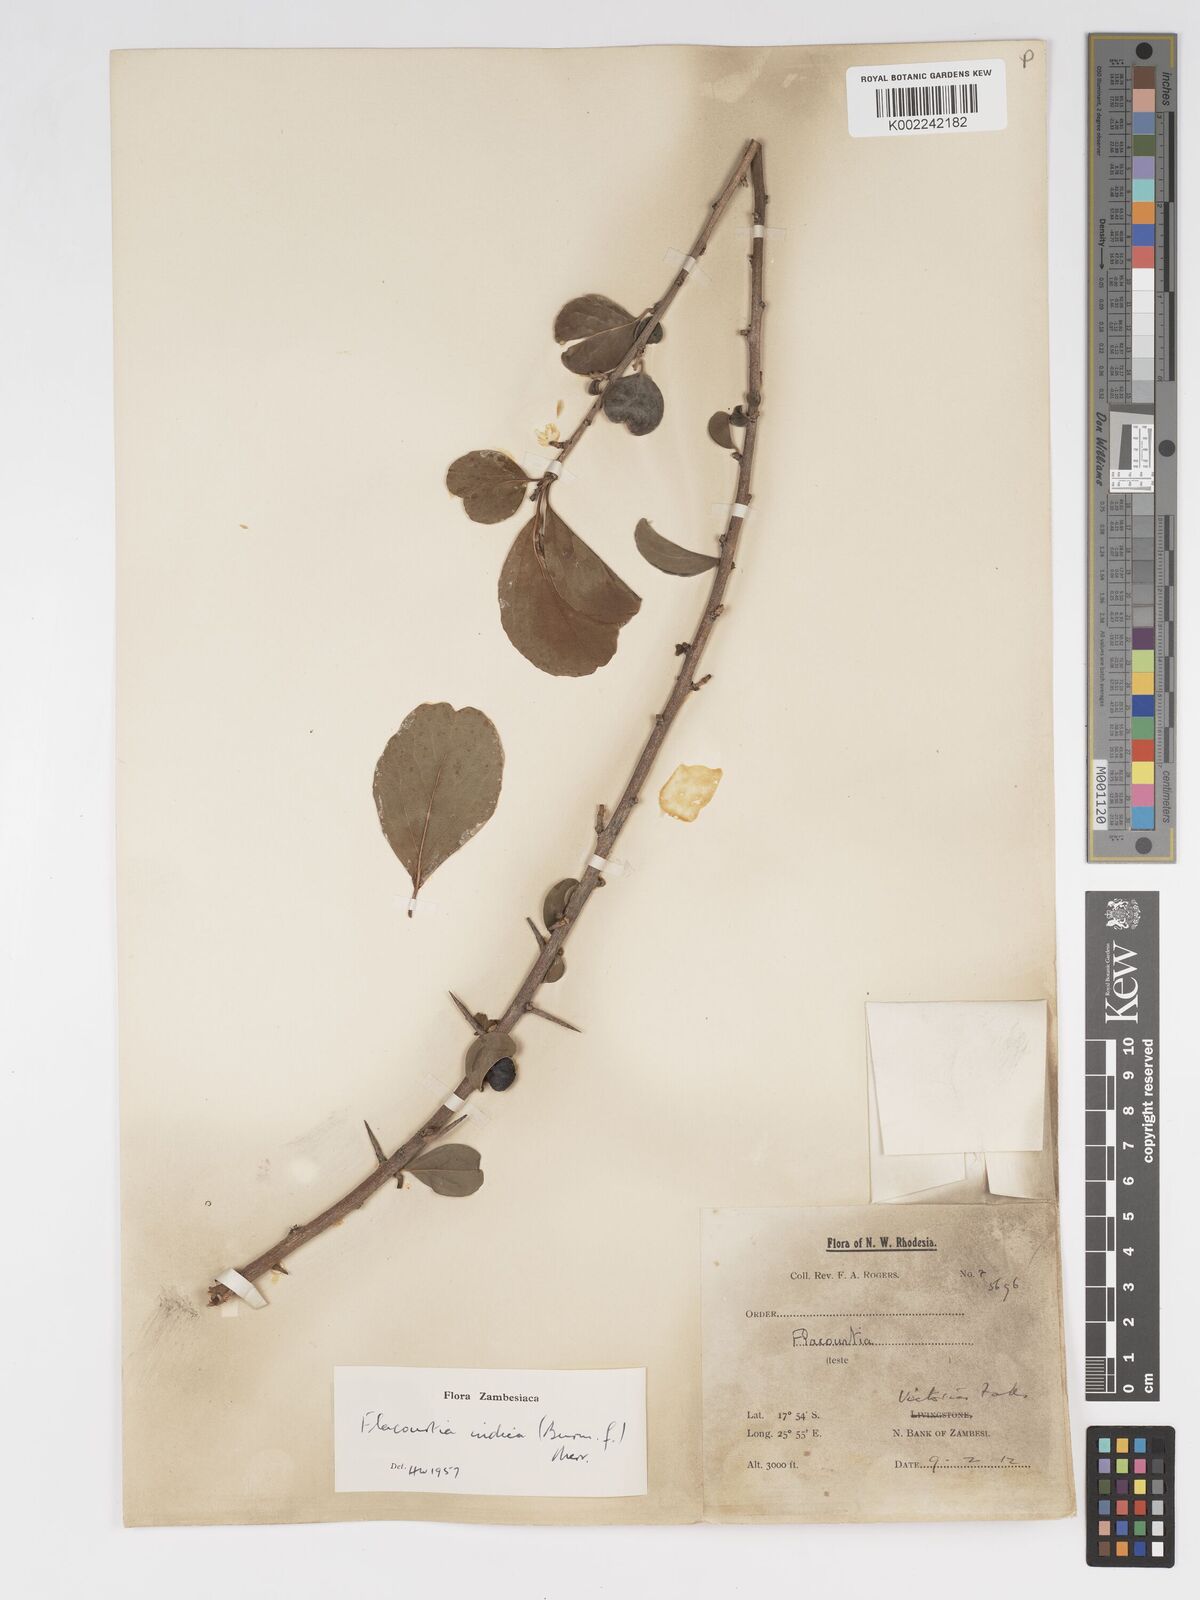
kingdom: Plantae
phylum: Tracheophyta
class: Magnoliopsida
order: Malpighiales
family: Salicaceae
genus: Flacourtia
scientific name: Flacourtia indica
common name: Governor's plum
